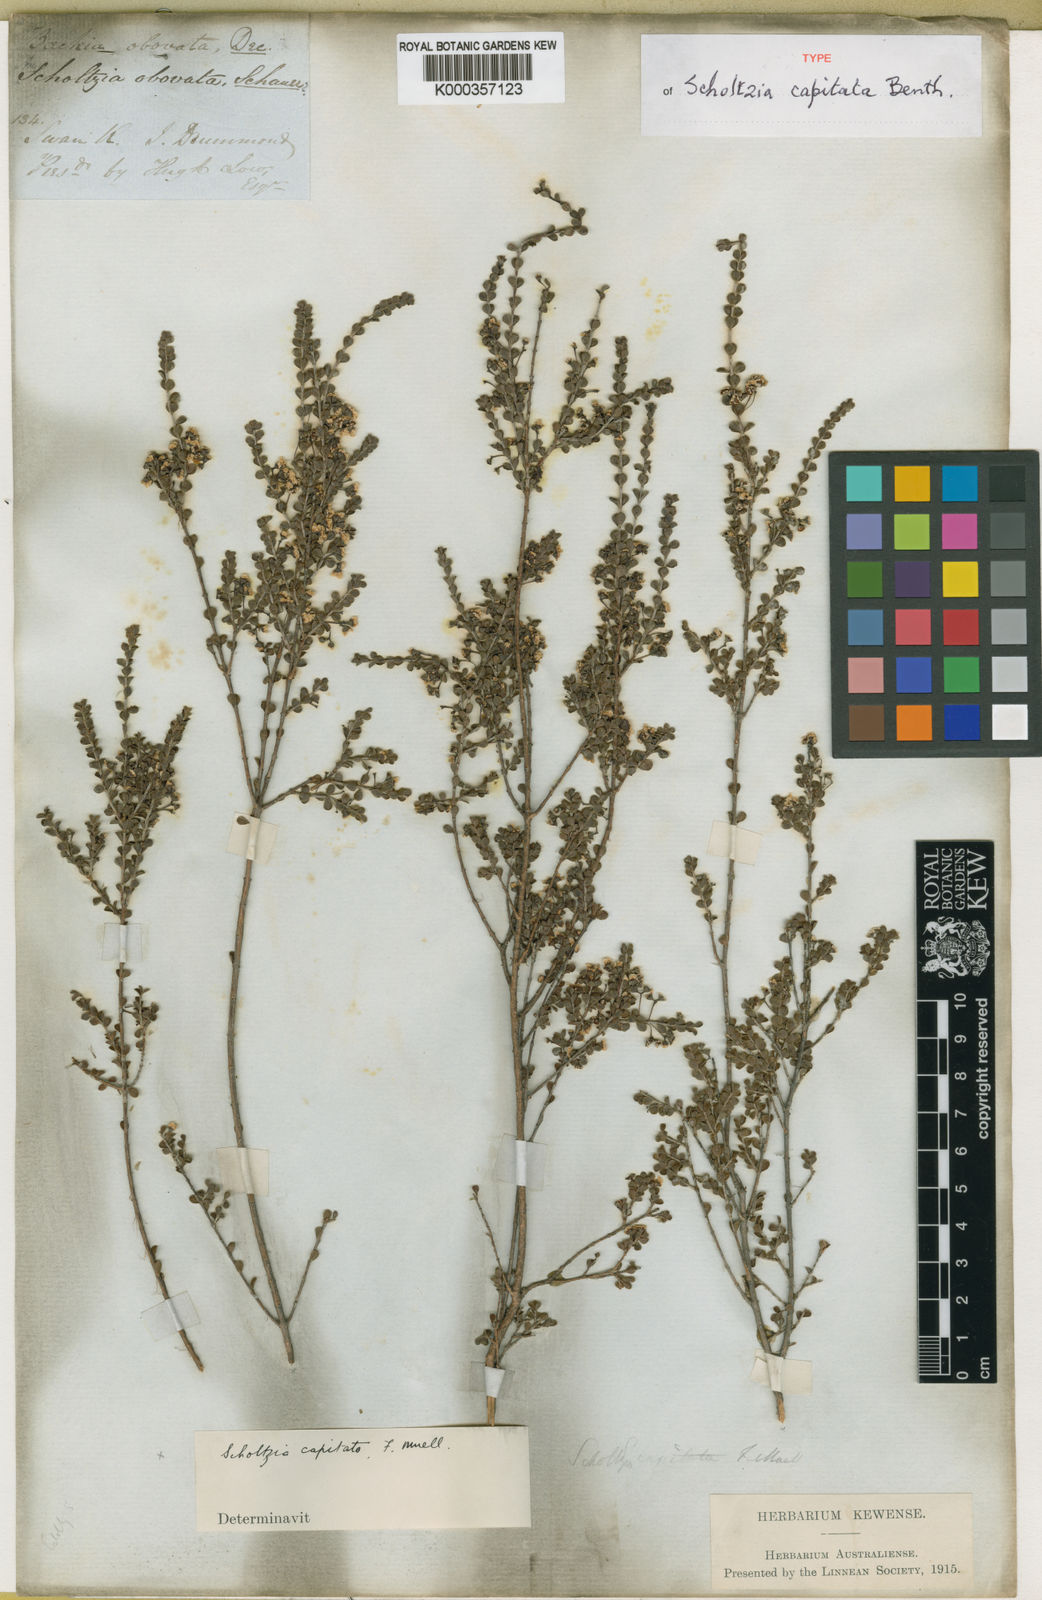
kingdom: Plantae
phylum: Tracheophyta
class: Magnoliopsida
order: Myrtales
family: Myrtaceae
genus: Scholtzia
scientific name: Scholtzia capitata
